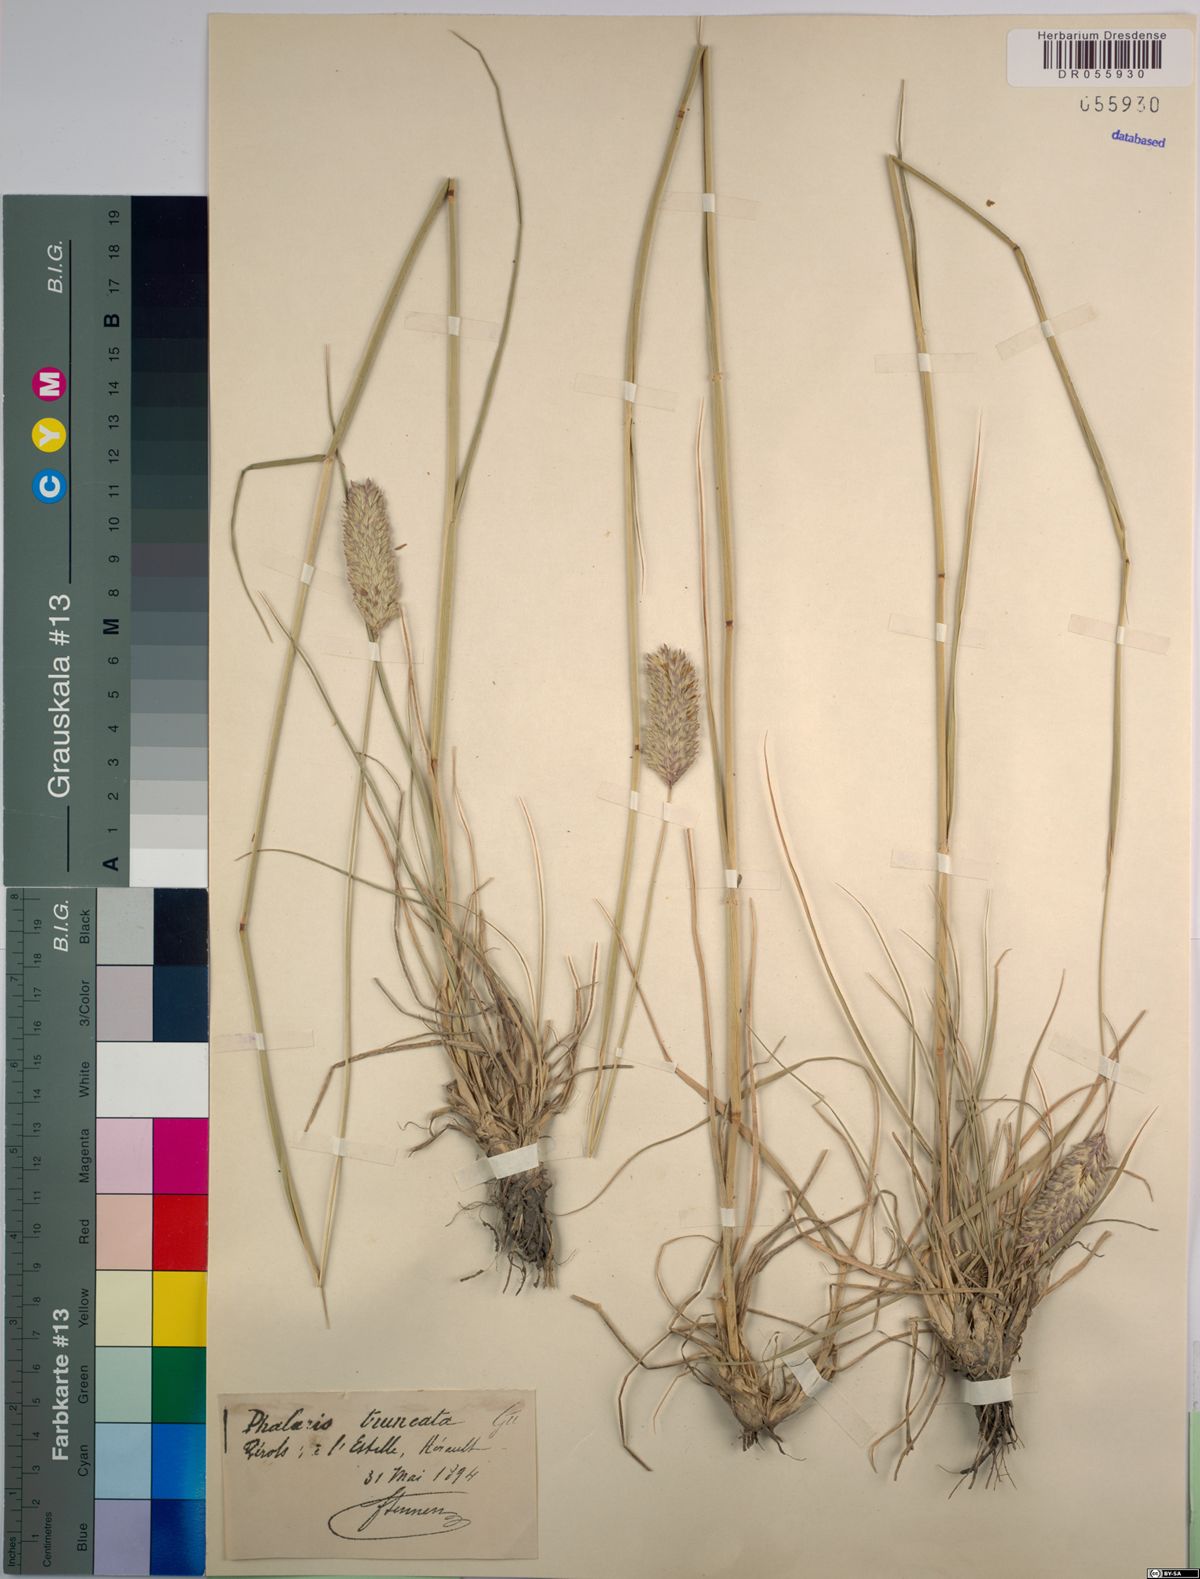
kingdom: Plantae
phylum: Tracheophyta
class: Liliopsida
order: Poales
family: Poaceae
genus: Phalaris
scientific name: Phalaris truncata
